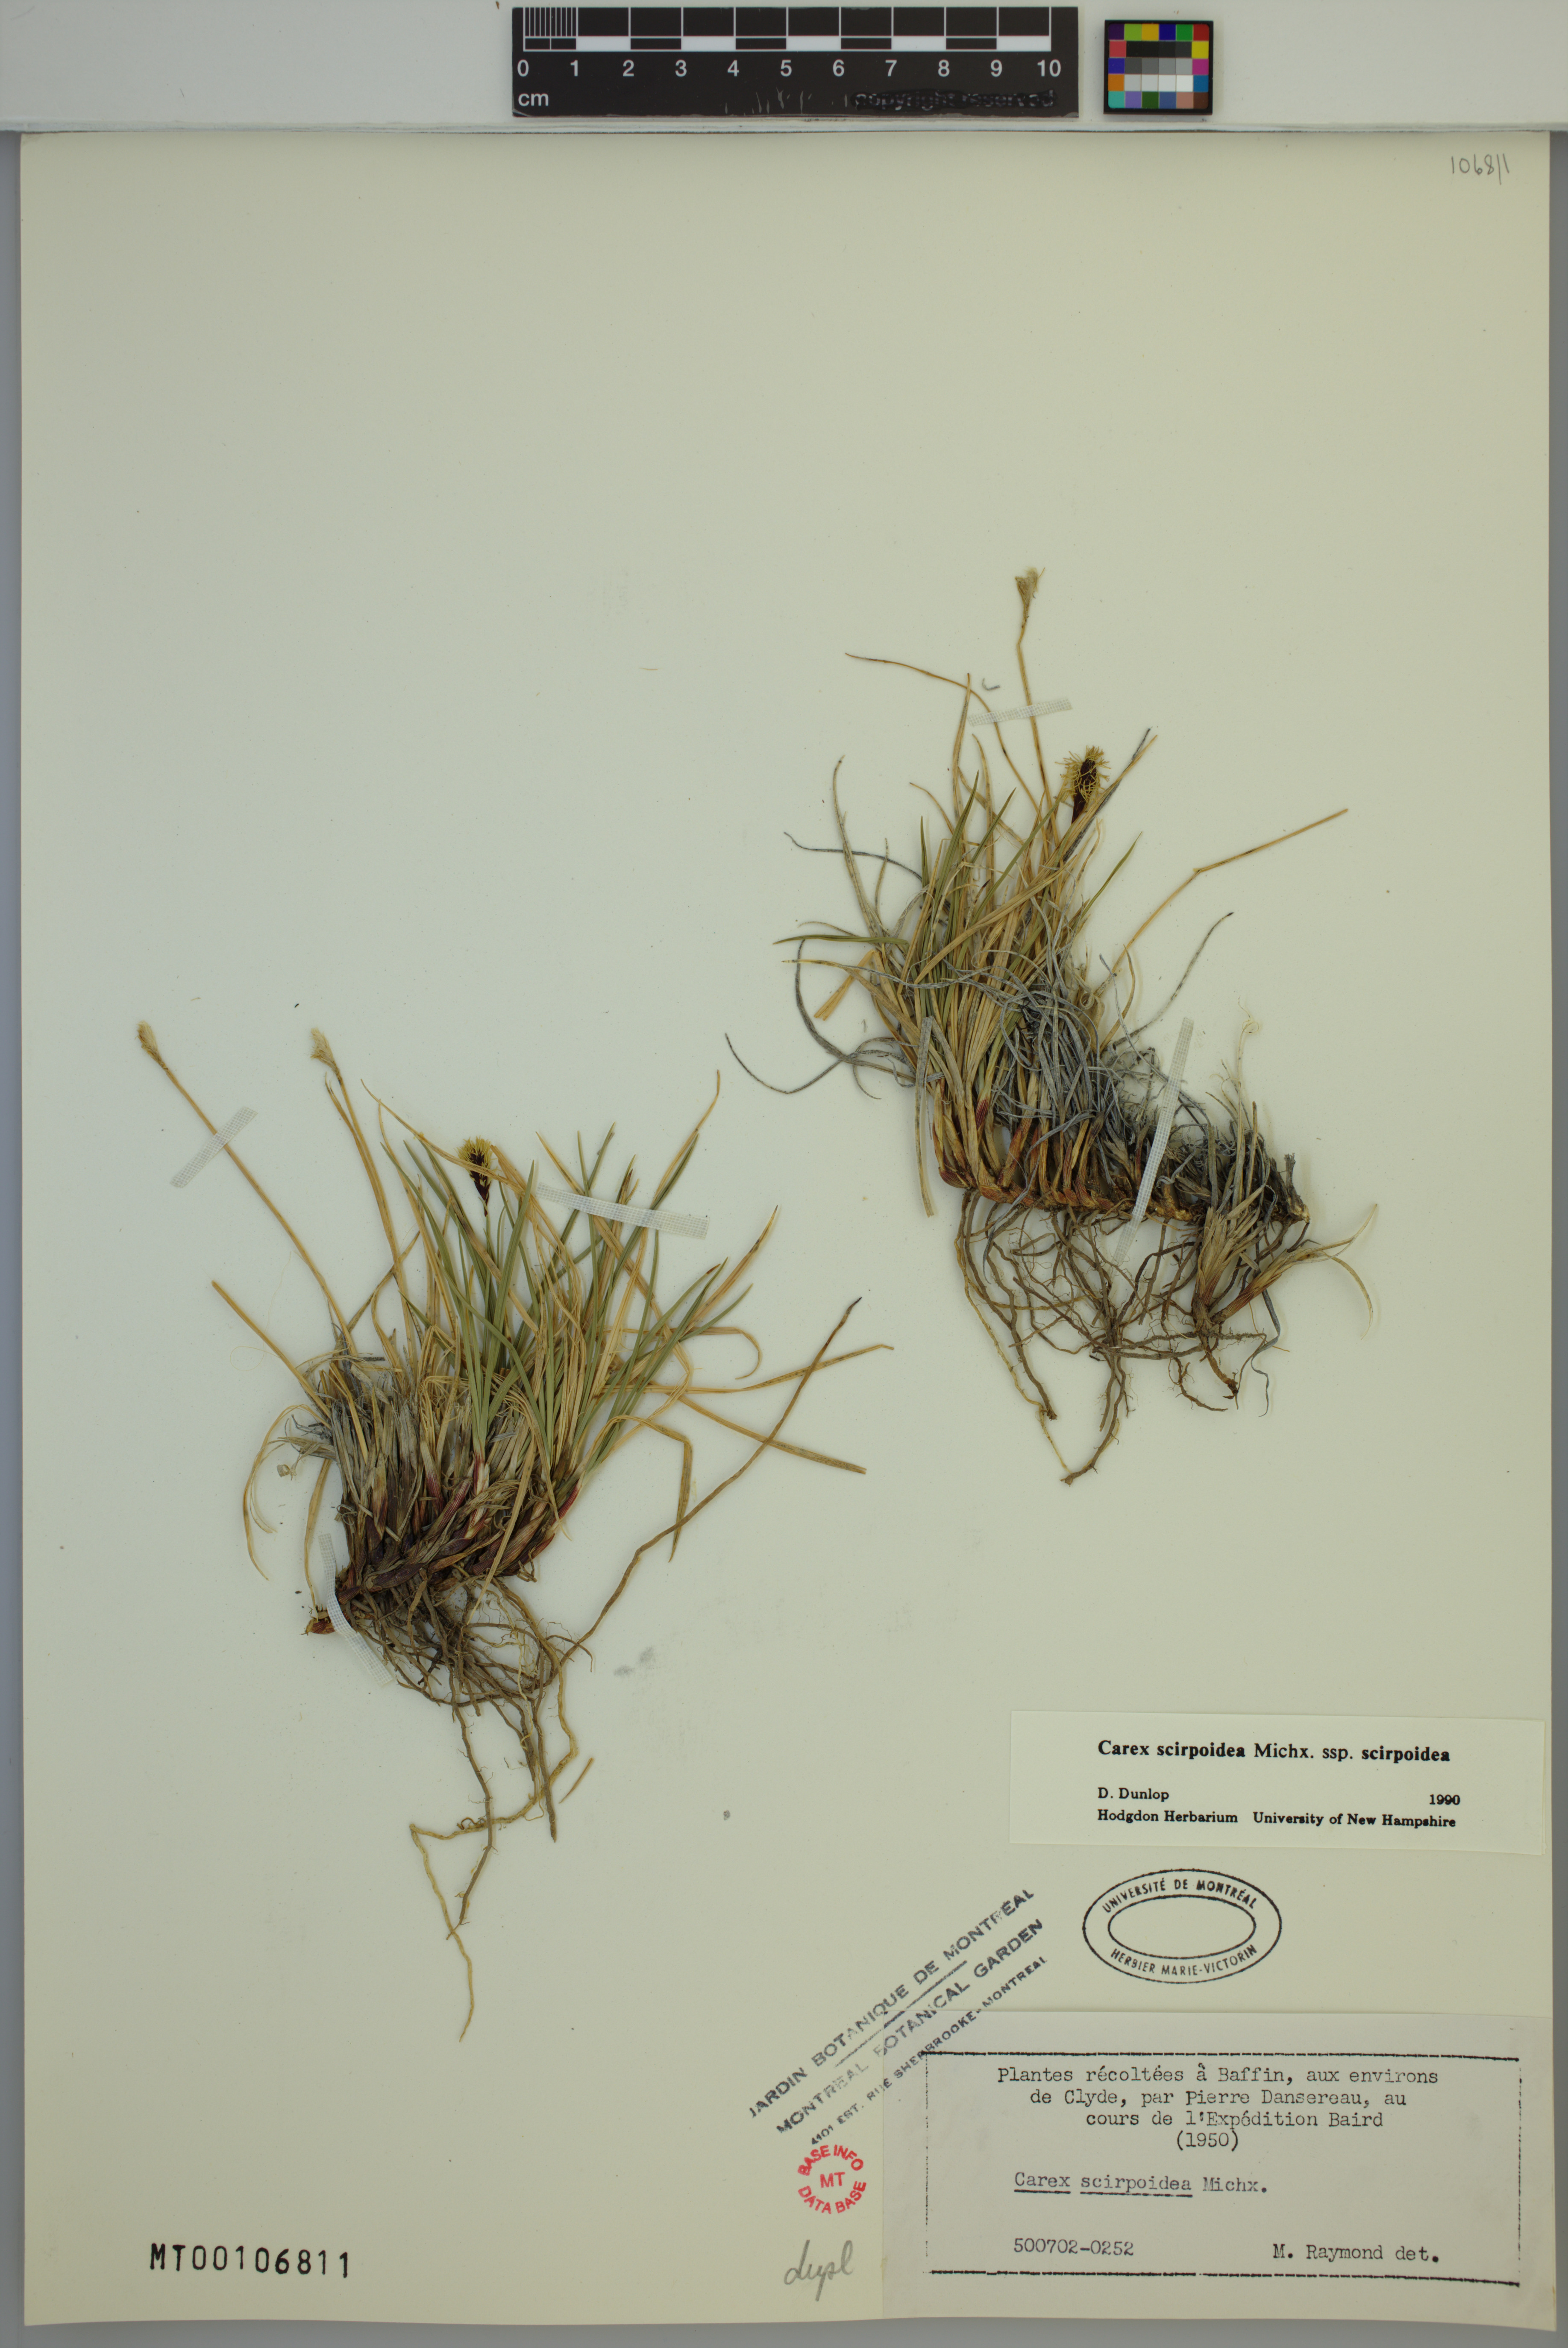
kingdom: Plantae
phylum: Tracheophyta
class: Liliopsida
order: Poales
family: Cyperaceae
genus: Carex
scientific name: Carex scirpoidea
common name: Canada single-spike sedge
